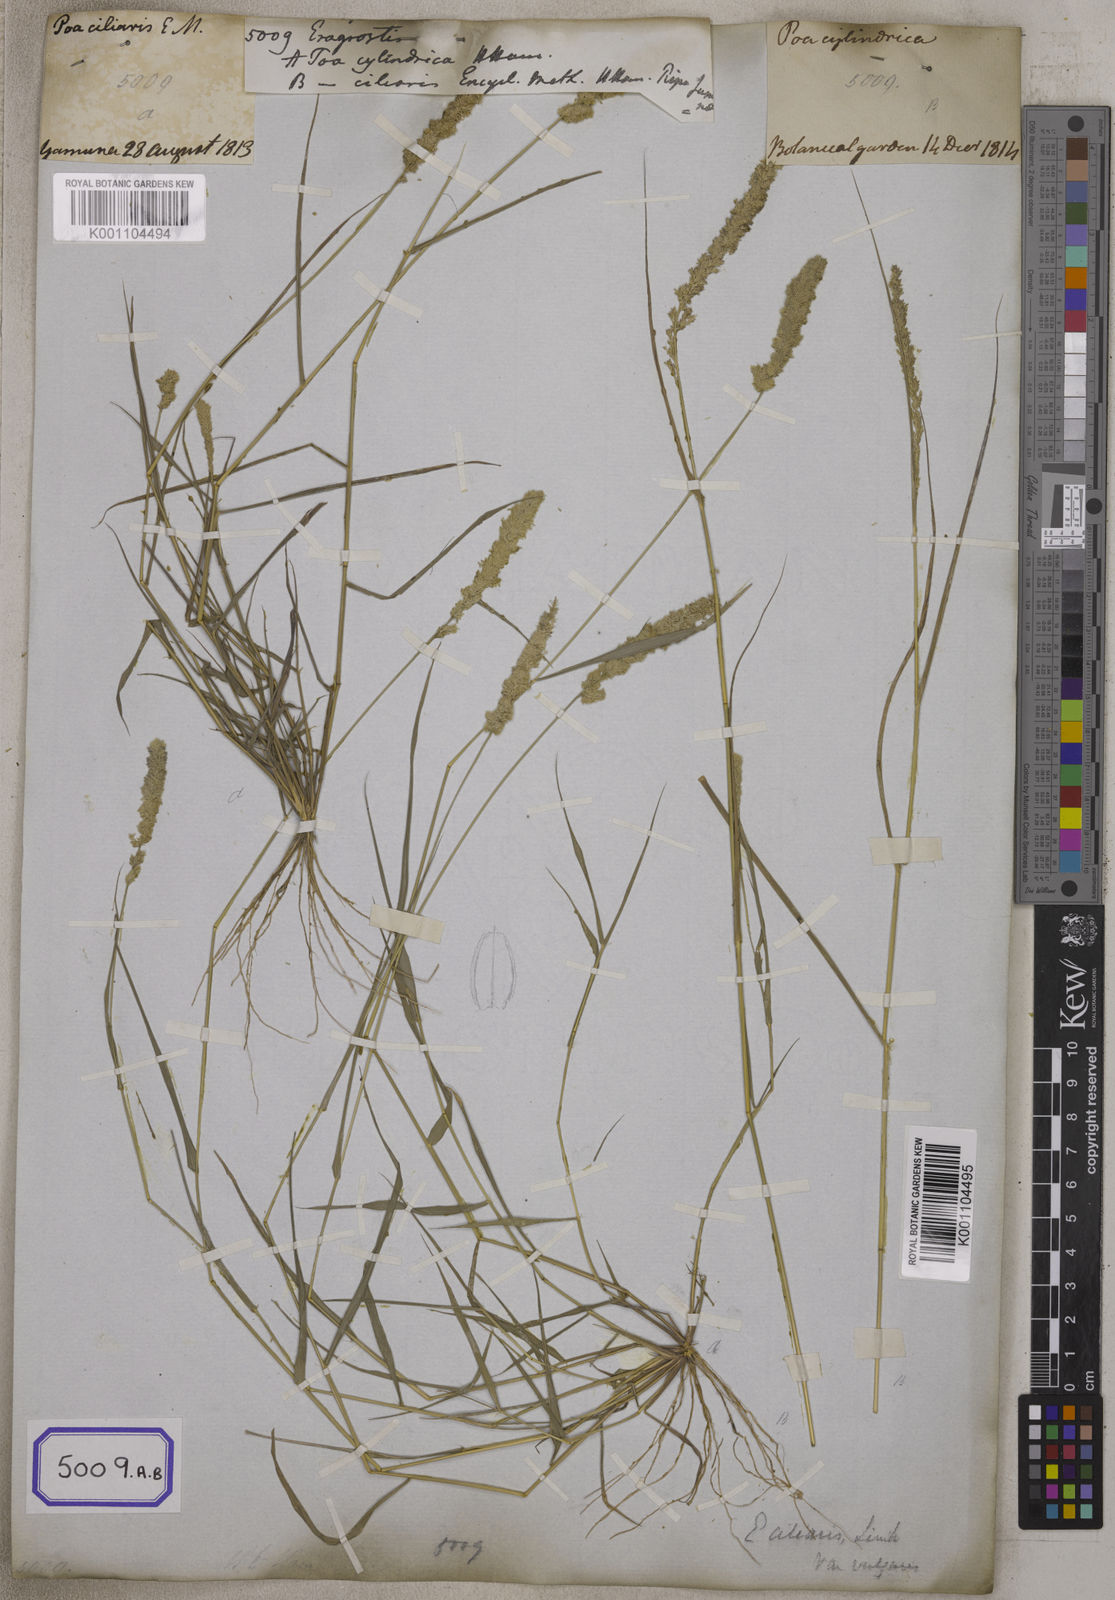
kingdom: Plantae
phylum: Tracheophyta
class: Liliopsida
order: Poales
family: Poaceae
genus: Eragrostis
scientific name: Eragrostis
